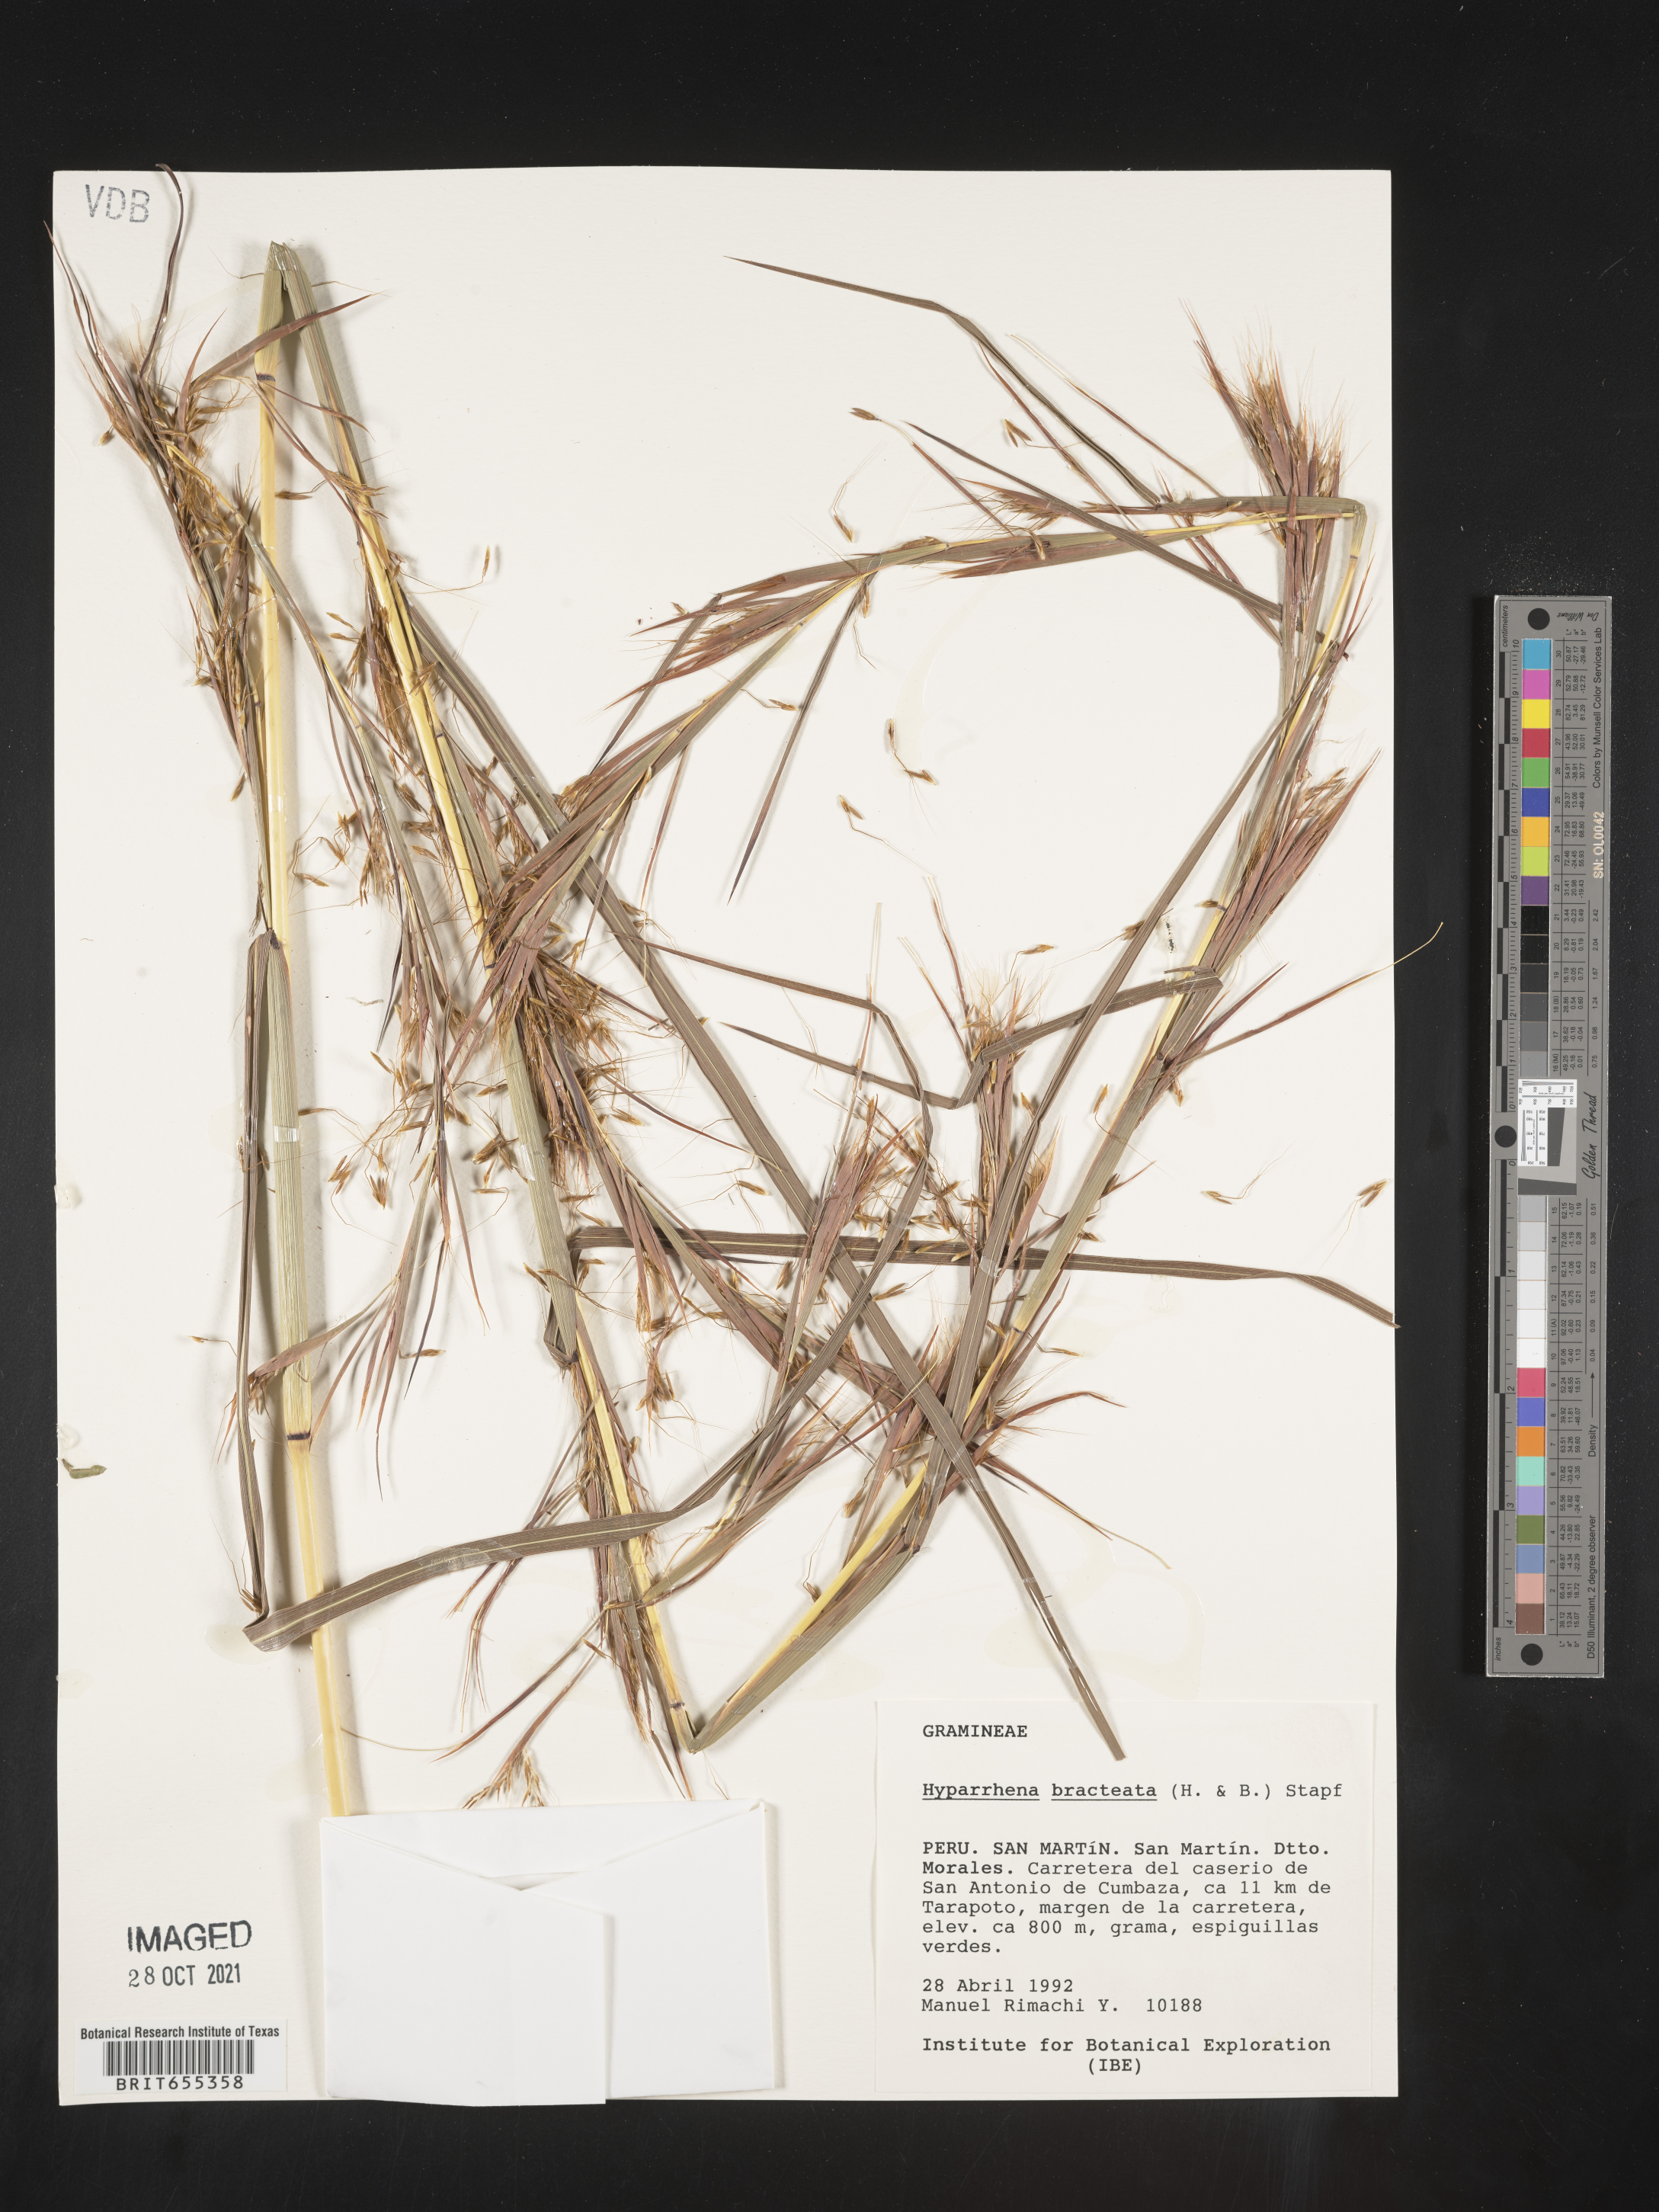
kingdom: Plantae
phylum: Tracheophyta
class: Liliopsida
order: Poales
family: Poaceae
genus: Hyparrhenia
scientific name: Hyparrhenia
